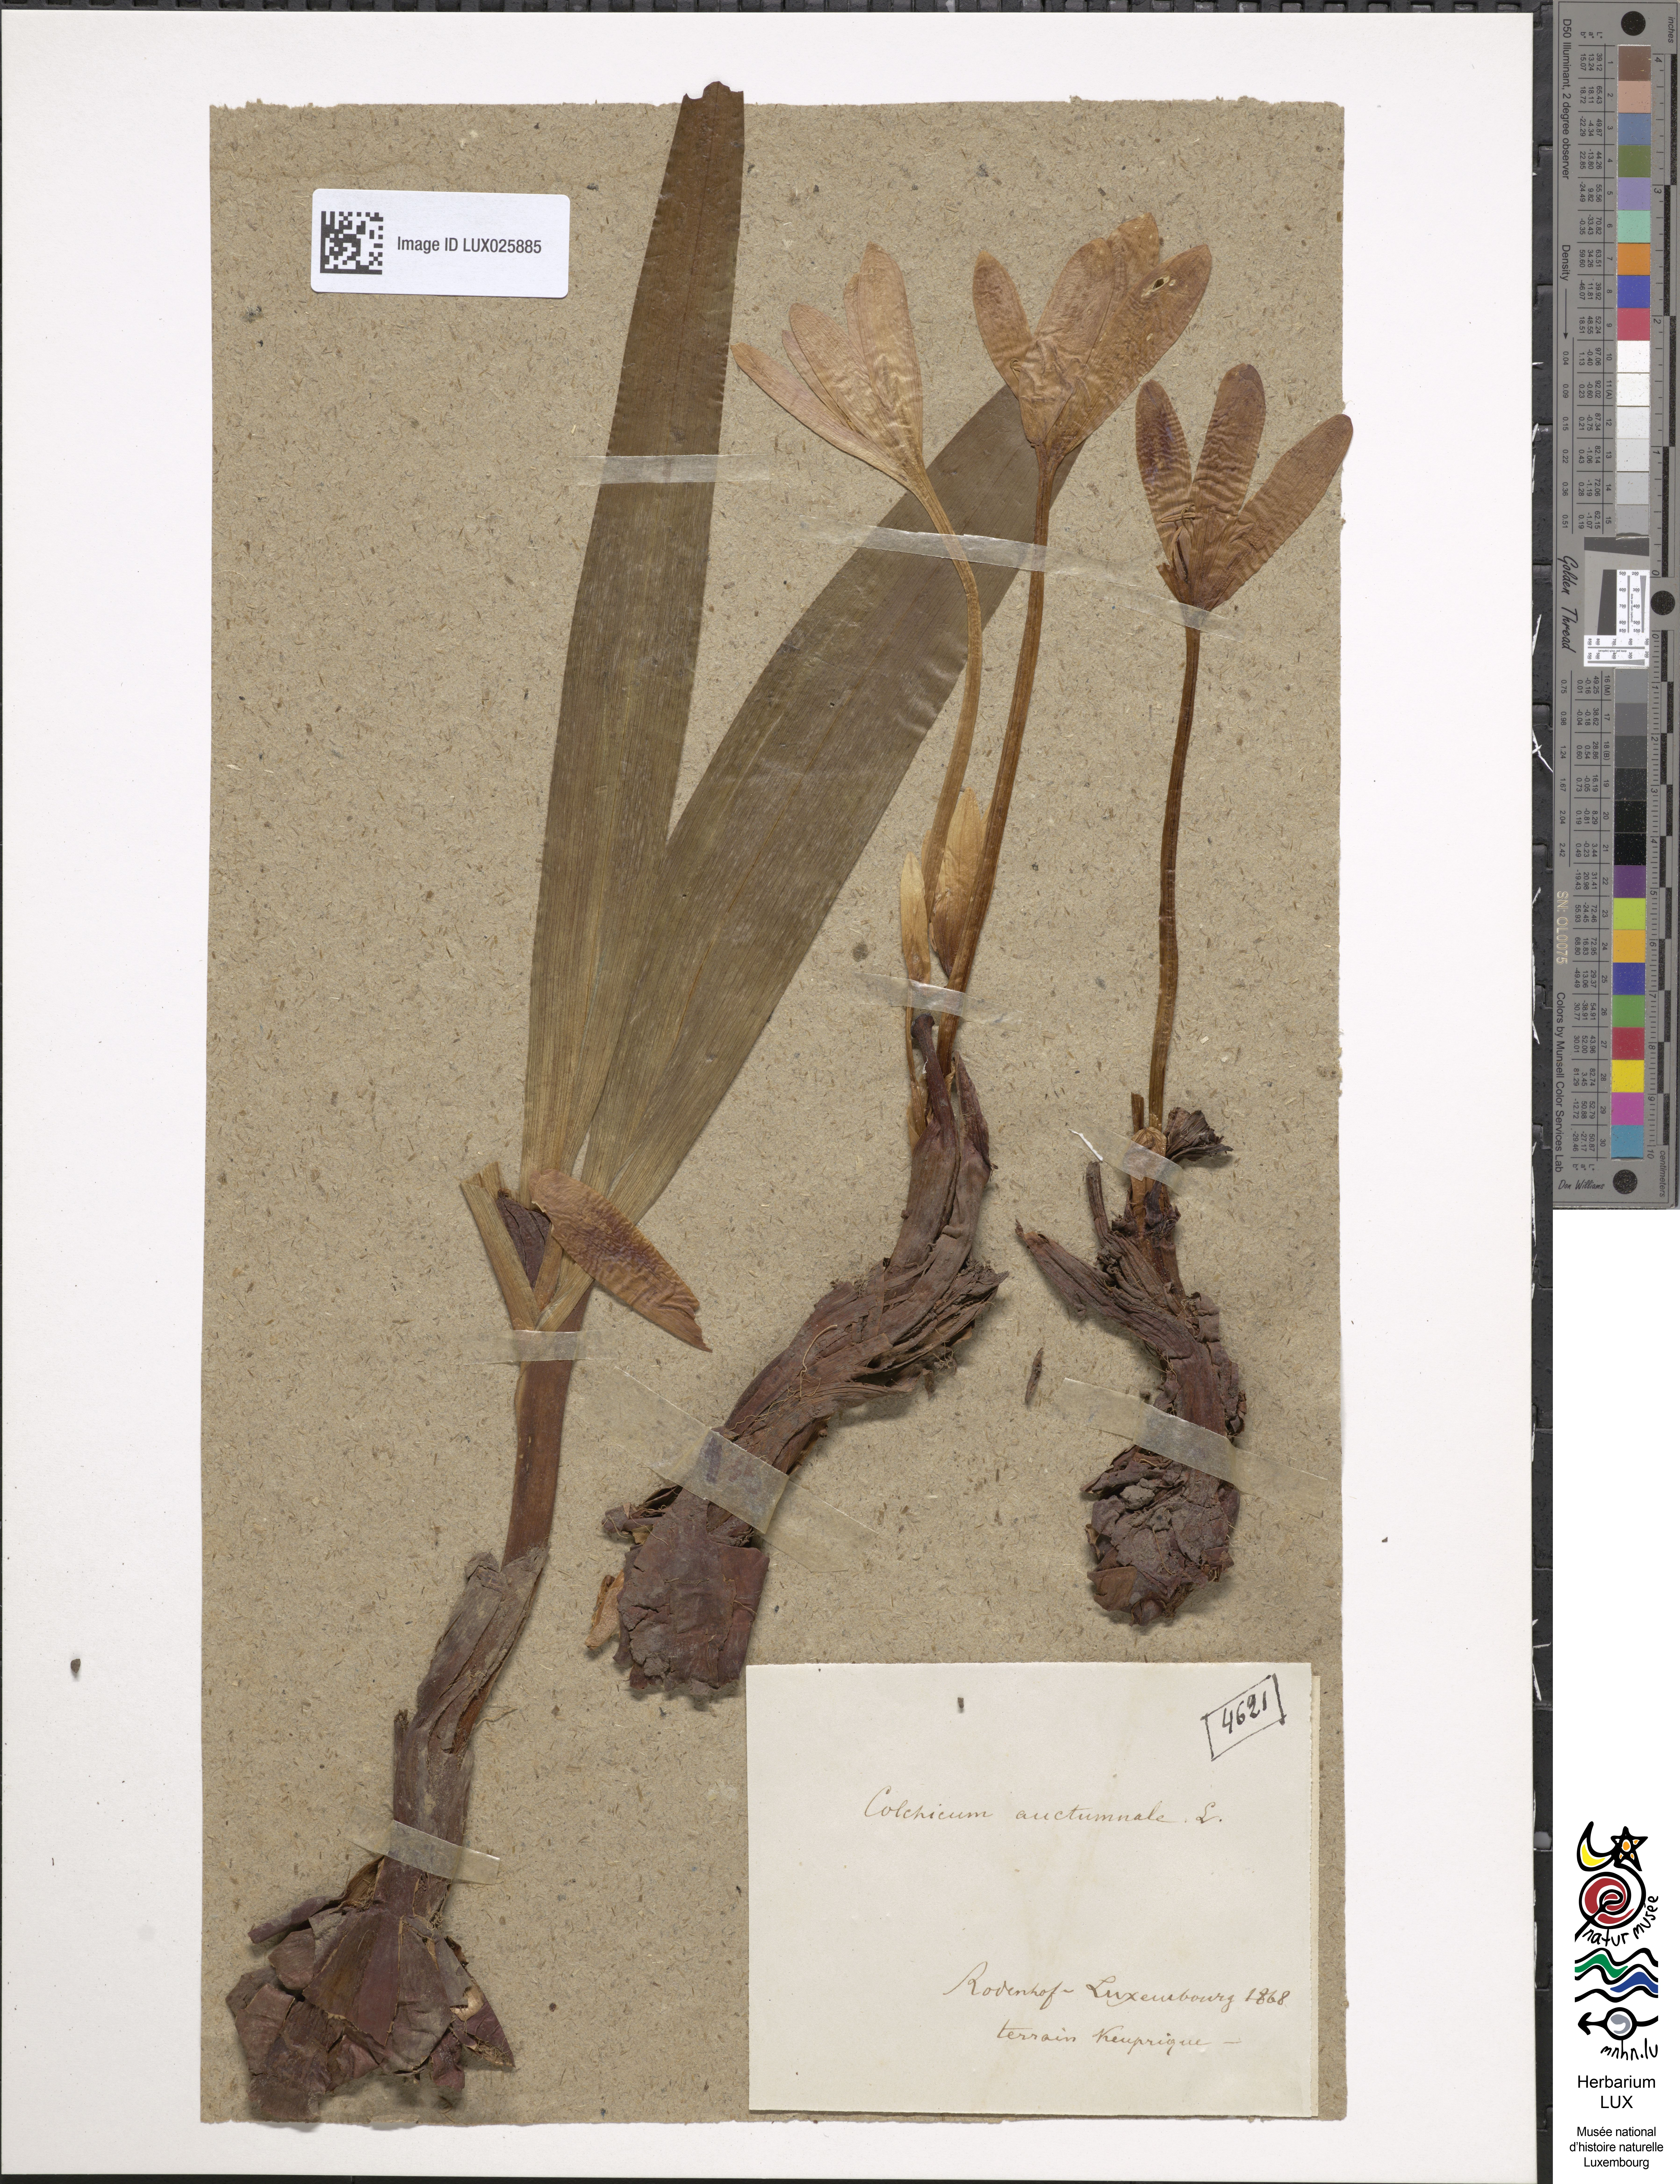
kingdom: Plantae
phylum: Tracheophyta
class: Liliopsida
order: Liliales
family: Colchicaceae
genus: Colchicum
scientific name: Colchicum autumnale
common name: Autumn crocus
